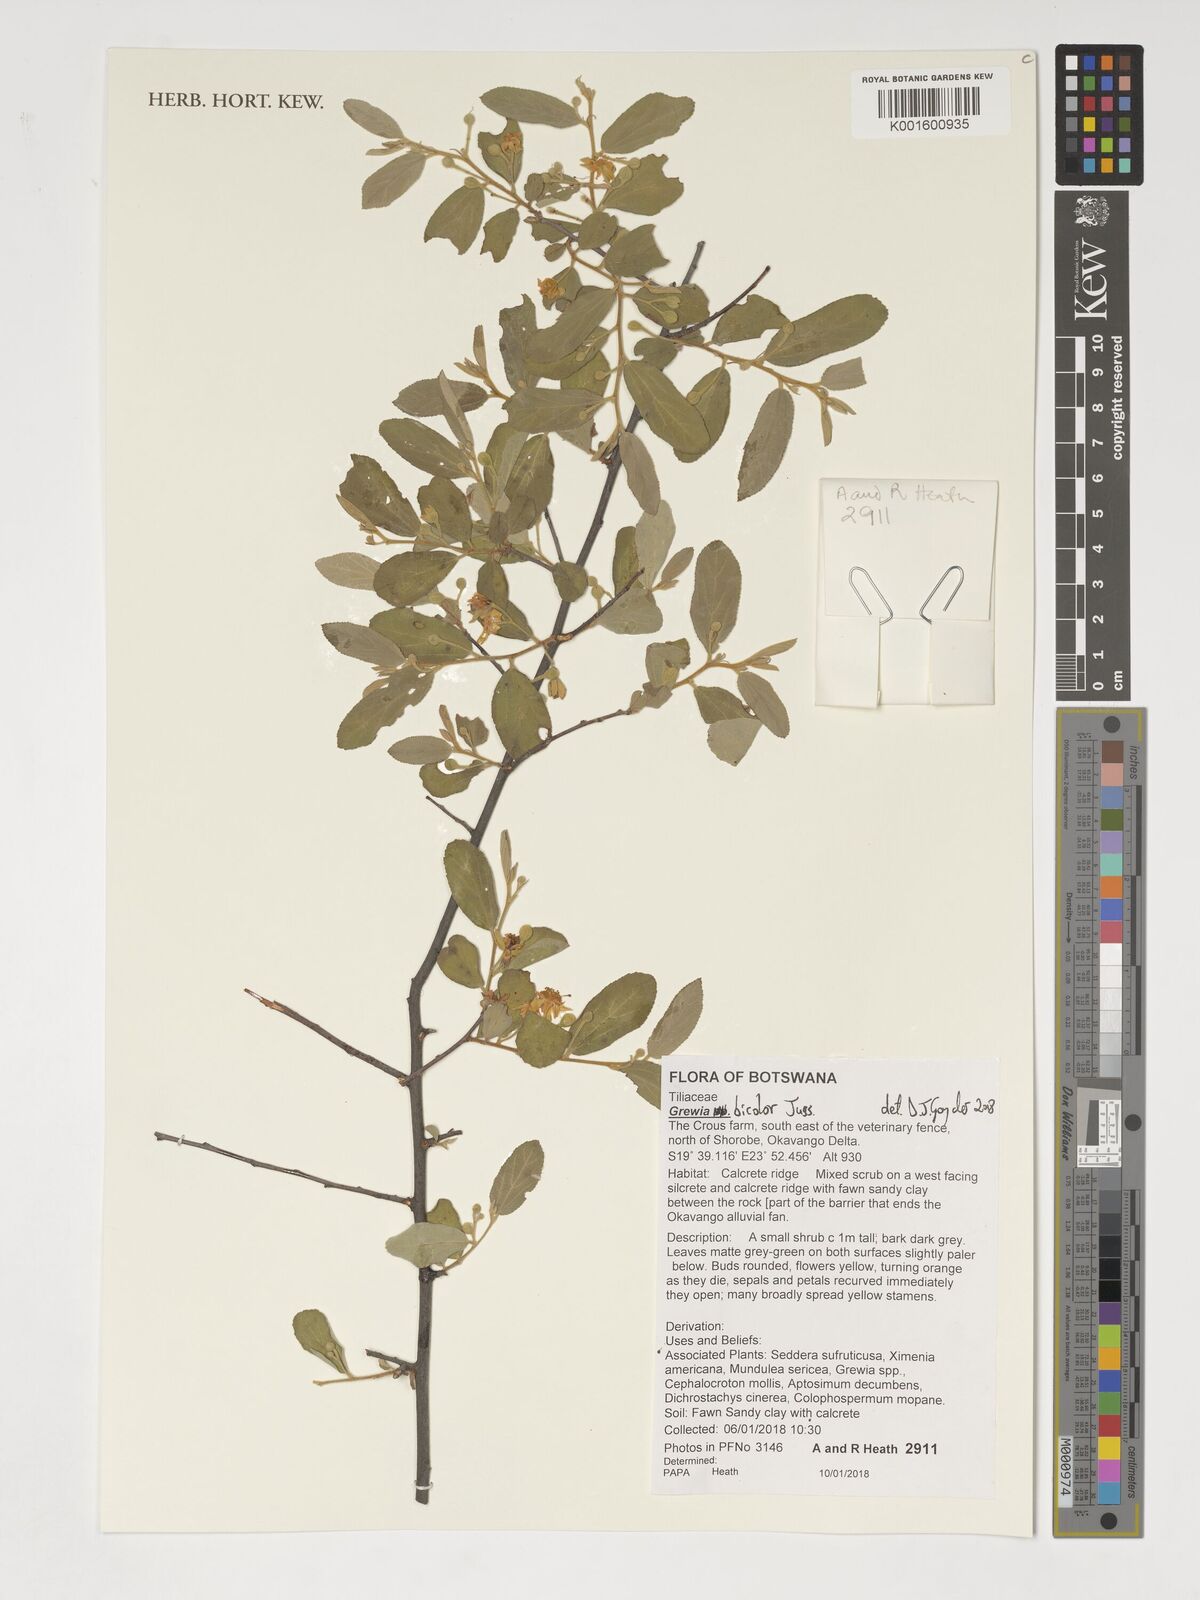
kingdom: Plantae
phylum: Tracheophyta
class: Magnoliopsida
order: Malvales
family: Malvaceae
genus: Grewia
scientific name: Grewia bicolor
